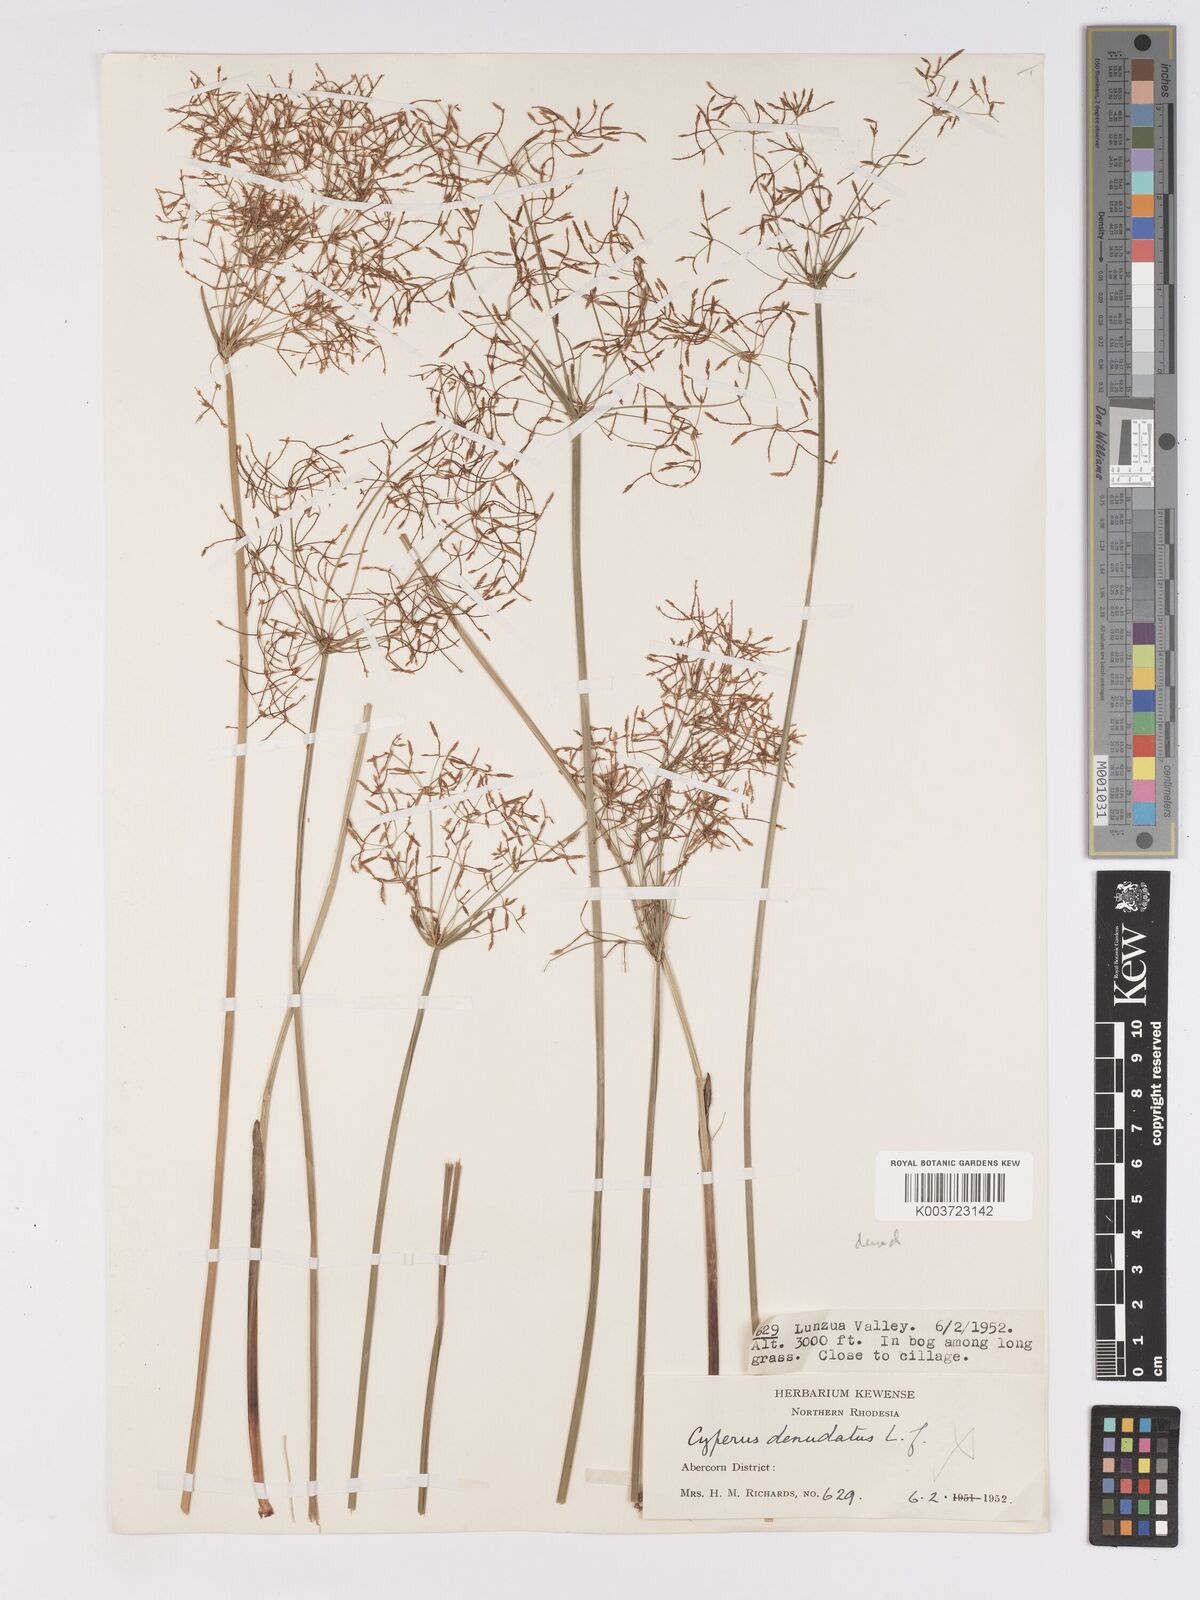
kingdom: Plantae
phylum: Tracheophyta
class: Liliopsida
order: Poales
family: Cyperaceae
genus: Cyperus
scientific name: Cyperus haspan
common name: Haspan flatsedge
